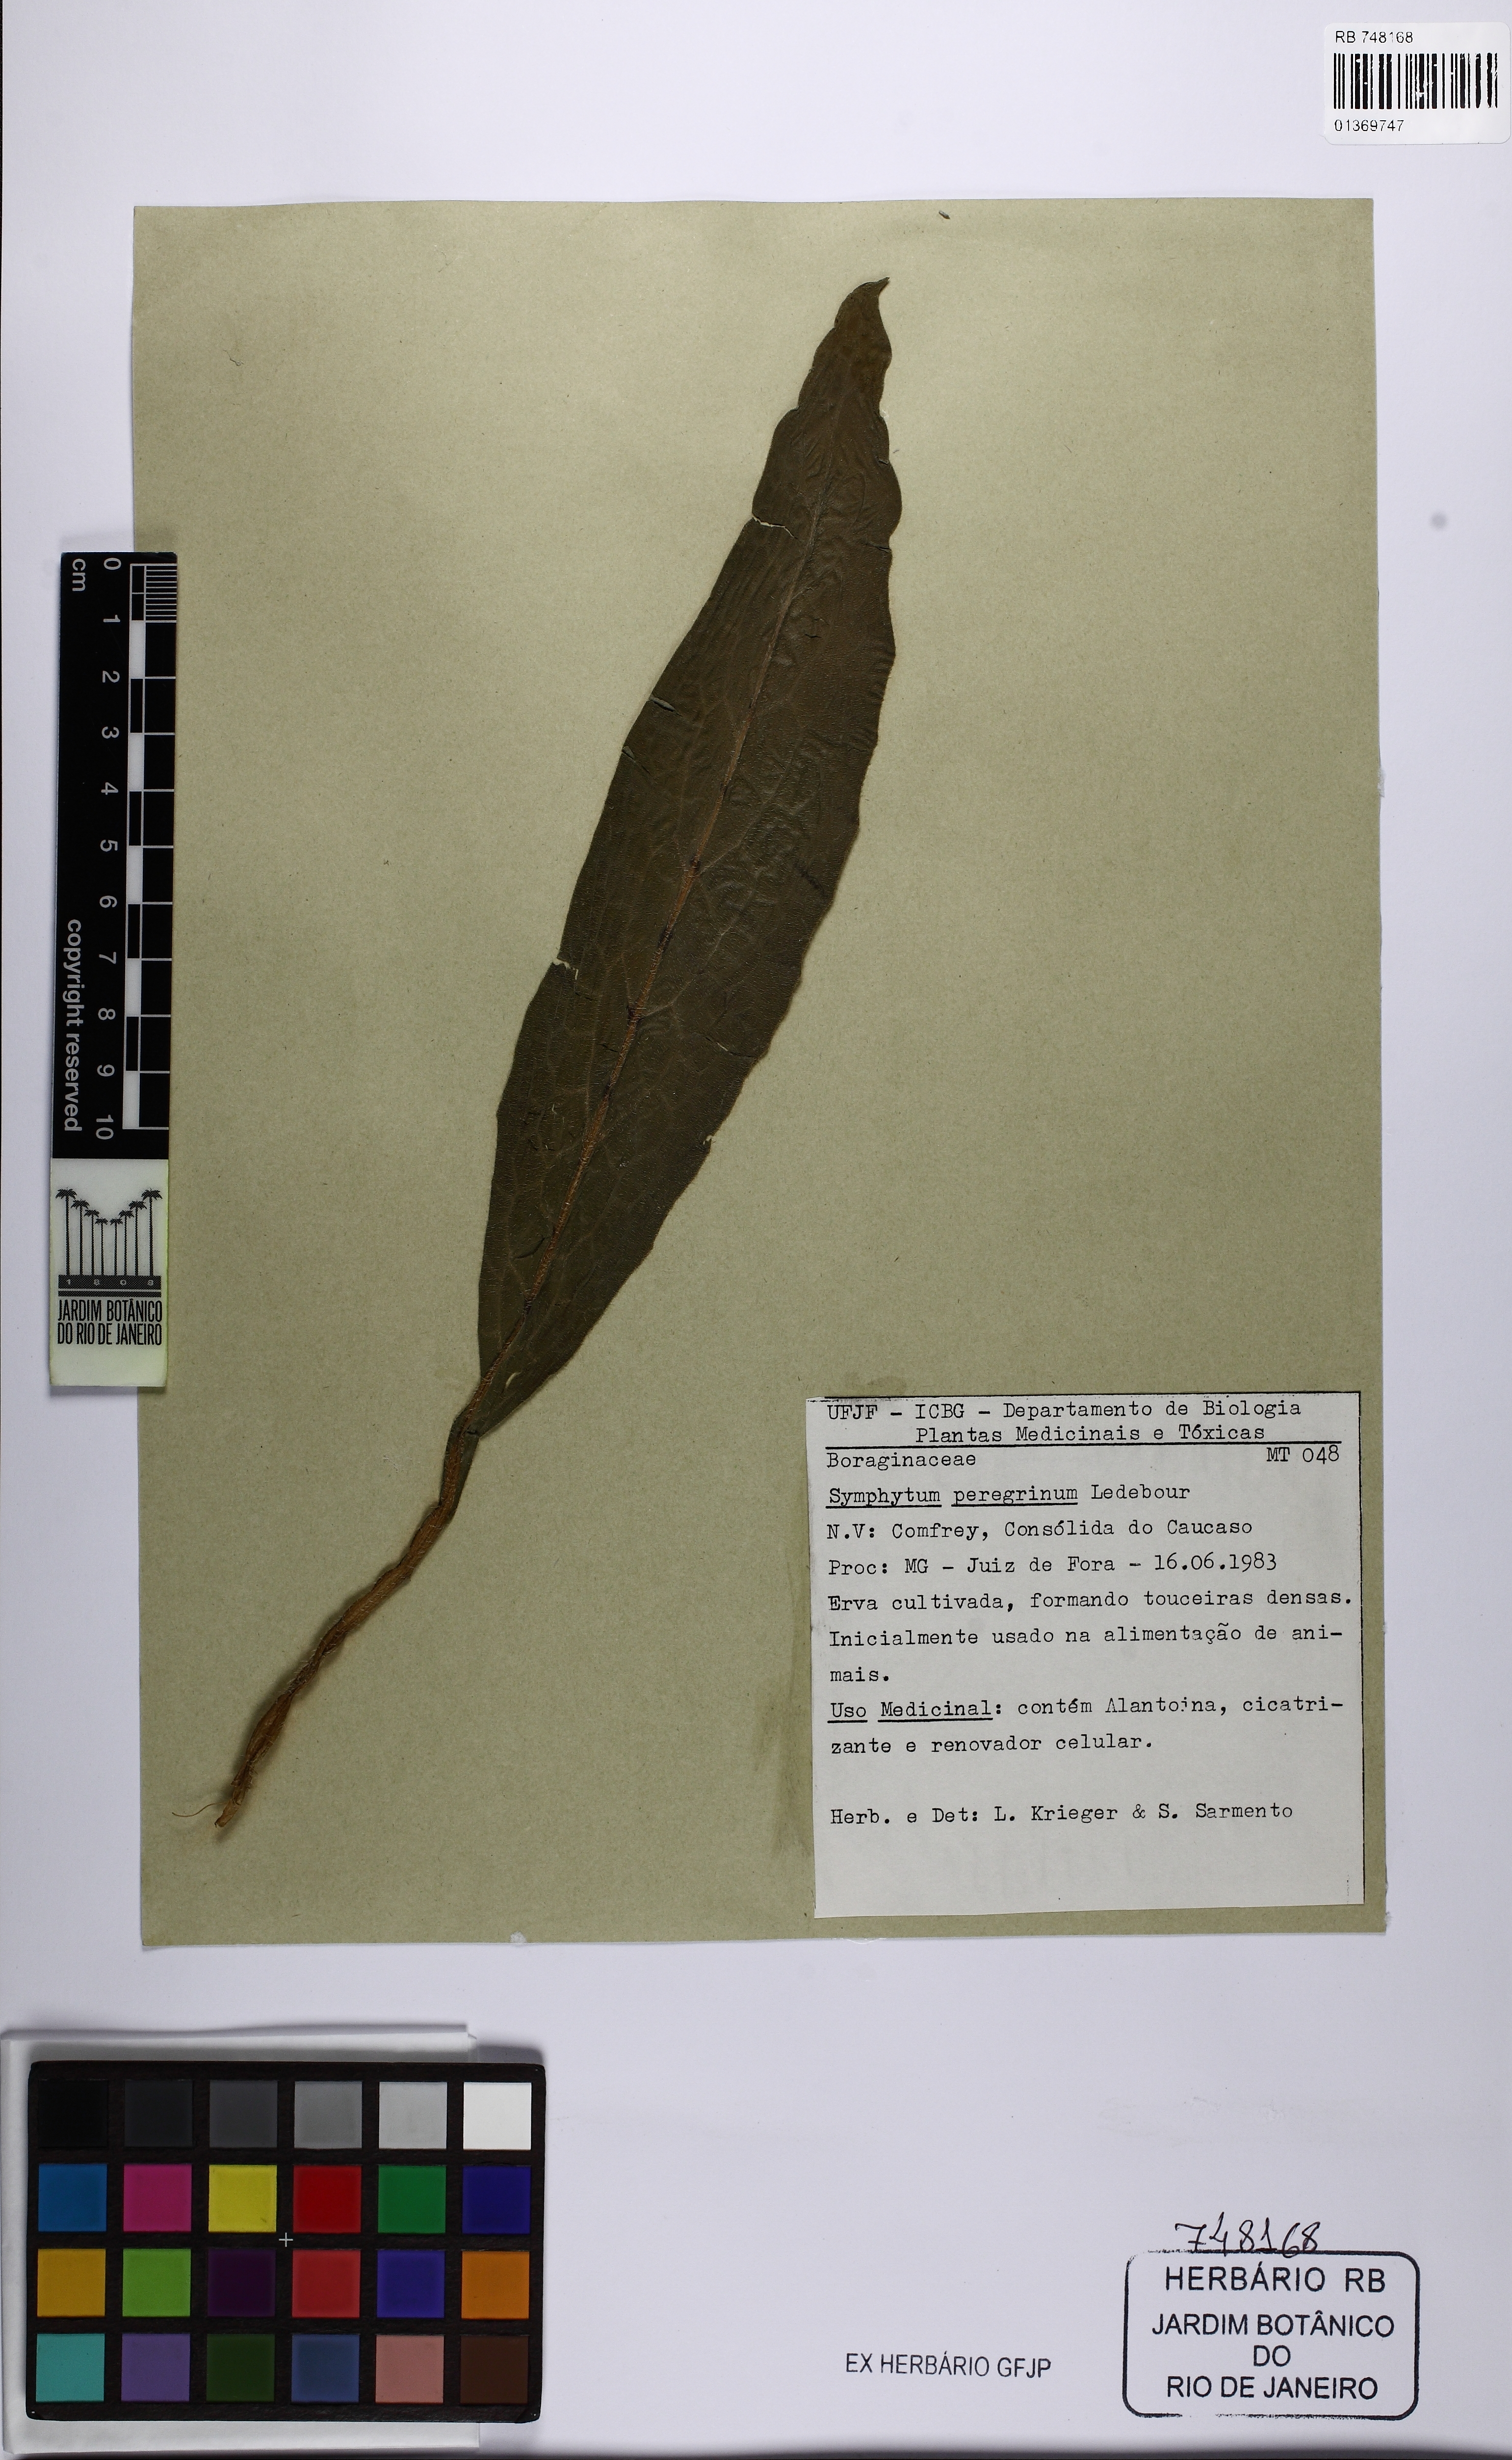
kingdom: Plantae
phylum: Tracheophyta
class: Magnoliopsida
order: Boraginales
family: Boraginaceae
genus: Symphytum
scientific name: Symphytum officinale
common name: Common comfrey
